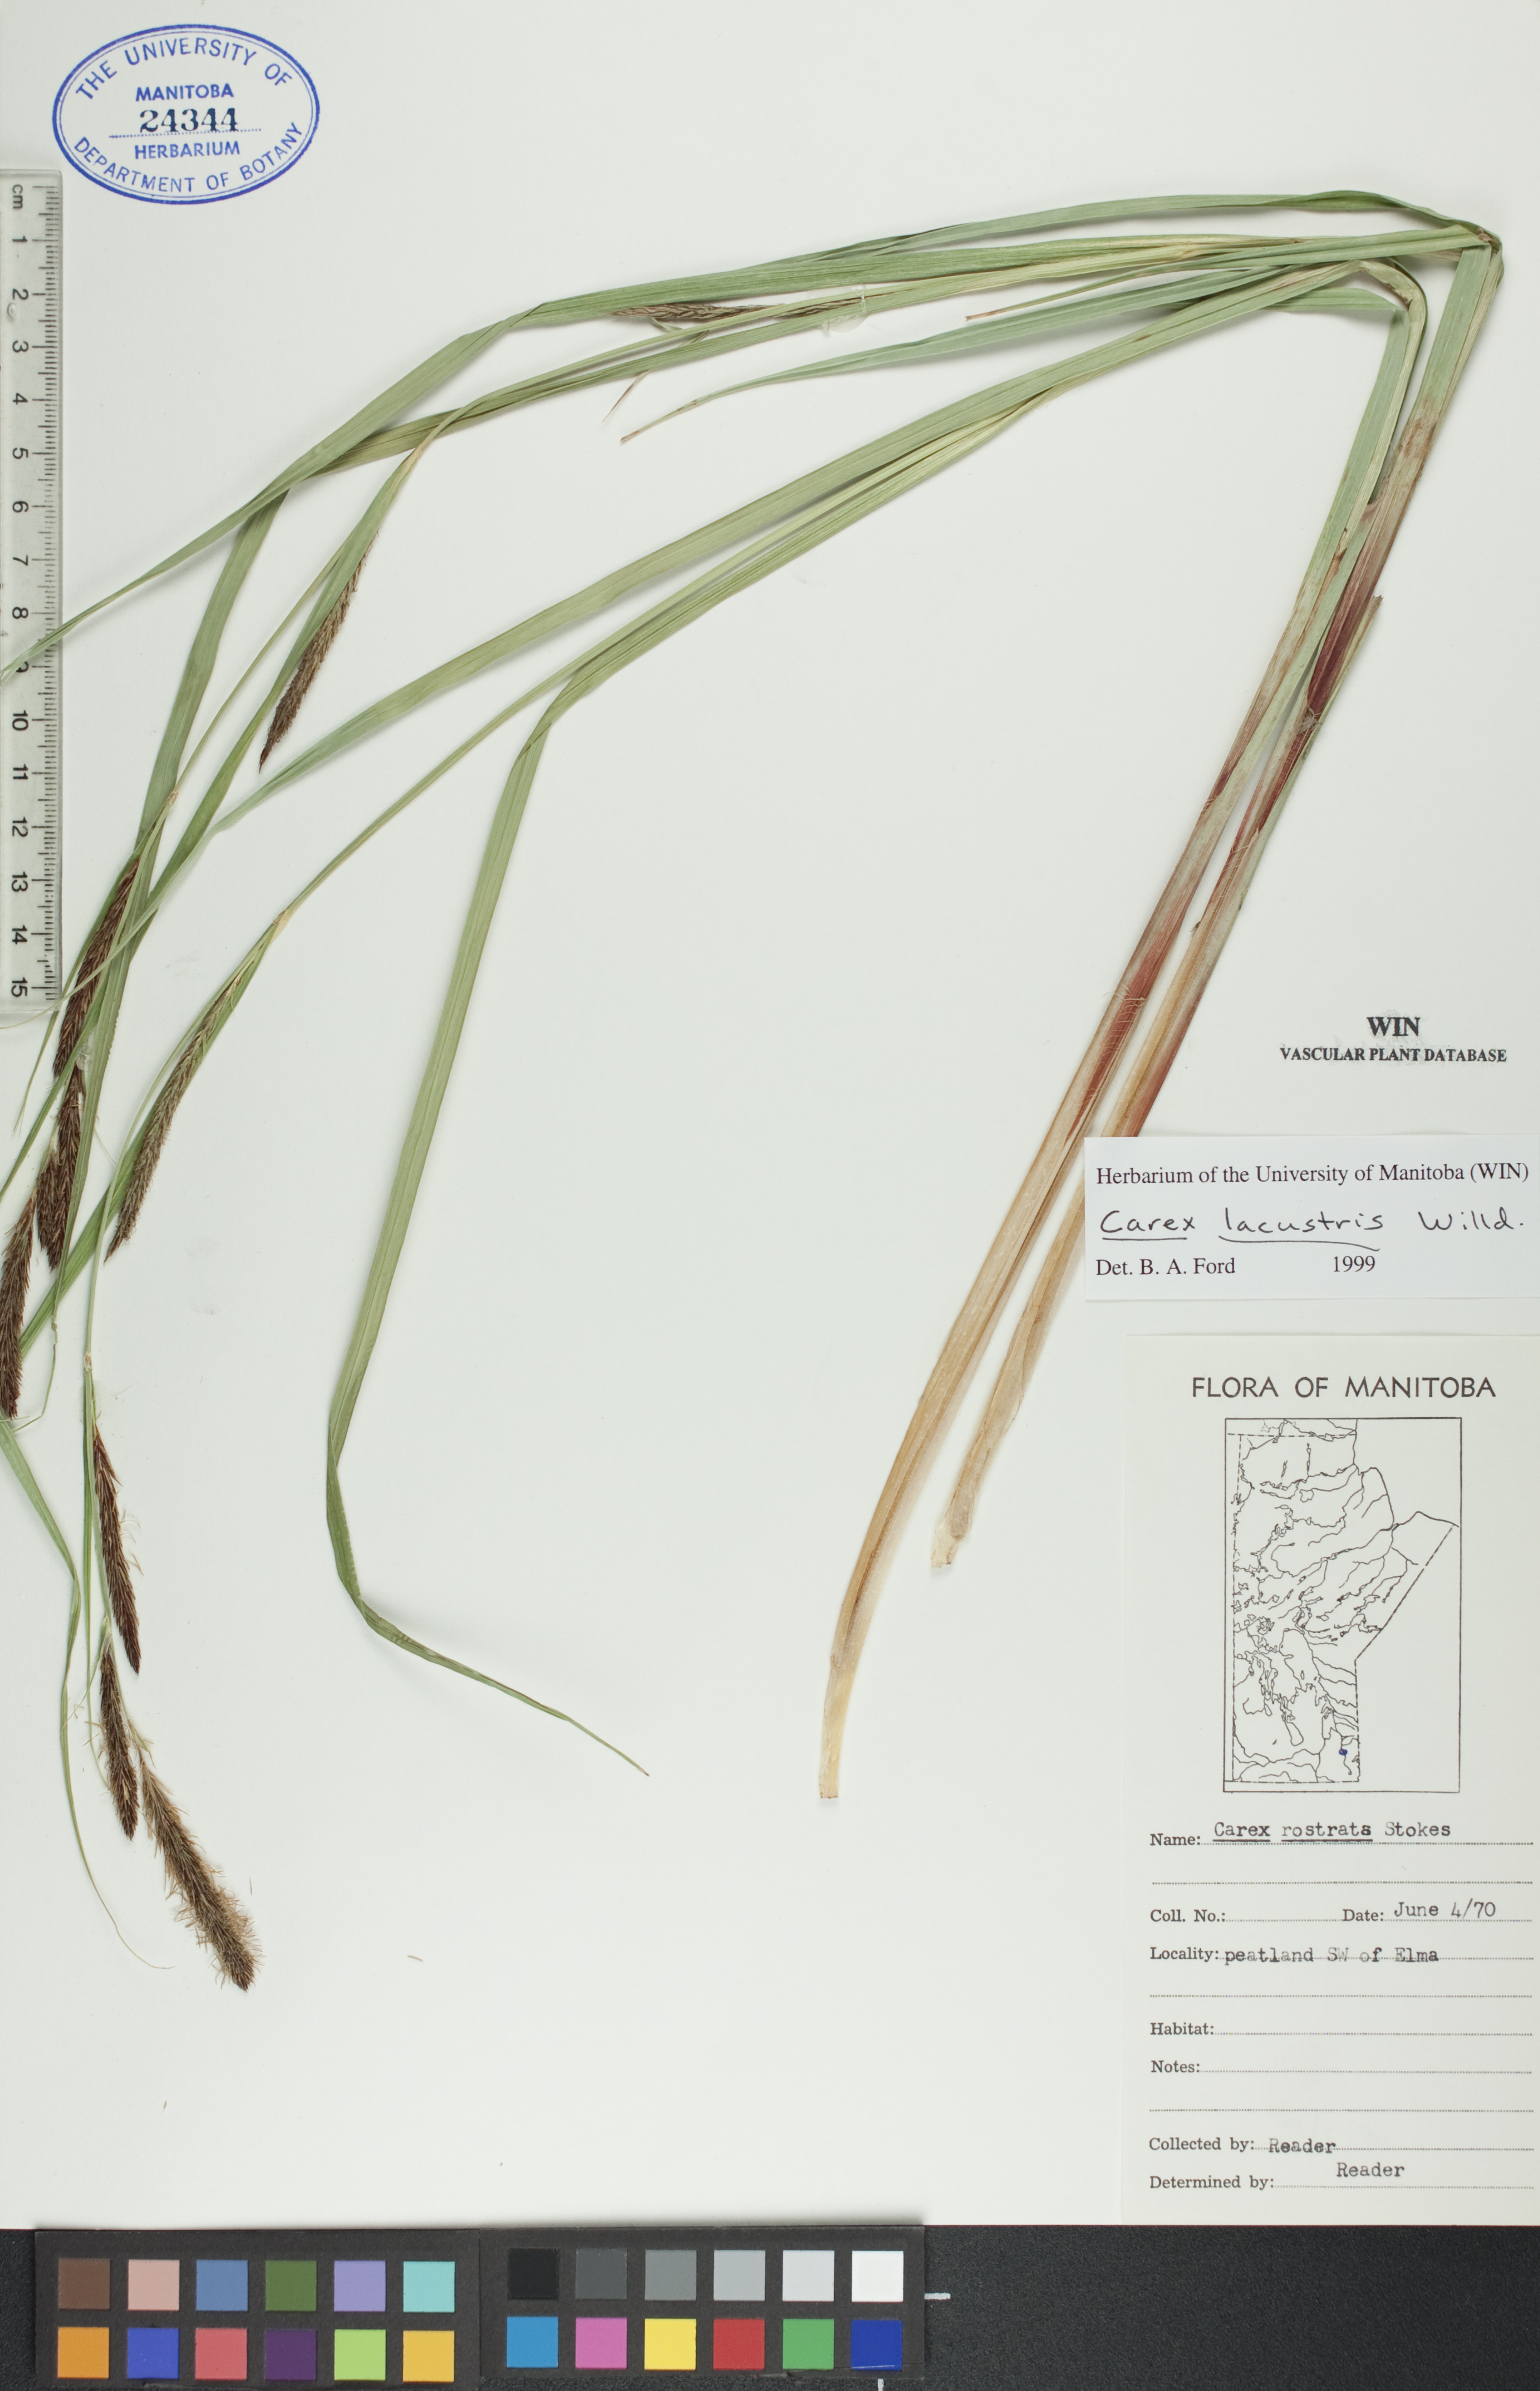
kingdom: Plantae
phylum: Tracheophyta
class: Liliopsida
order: Poales
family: Cyperaceae
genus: Carex
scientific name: Carex lacustris
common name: Common lake sedge
